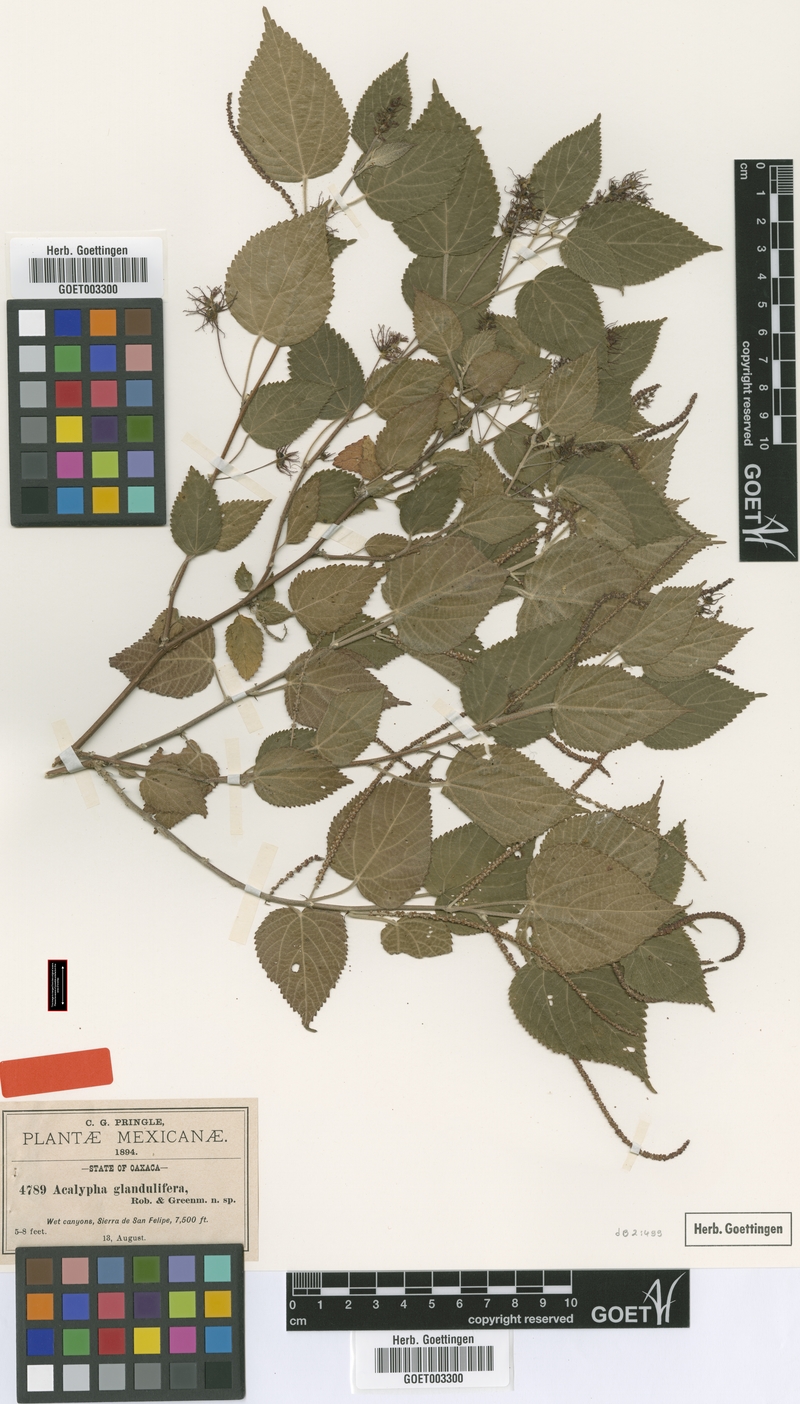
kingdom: Plantae
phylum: Tracheophyta
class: Magnoliopsida
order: Malpighiales
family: Euphorbiaceae
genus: Acalypha
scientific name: Acalypha trachyloba
